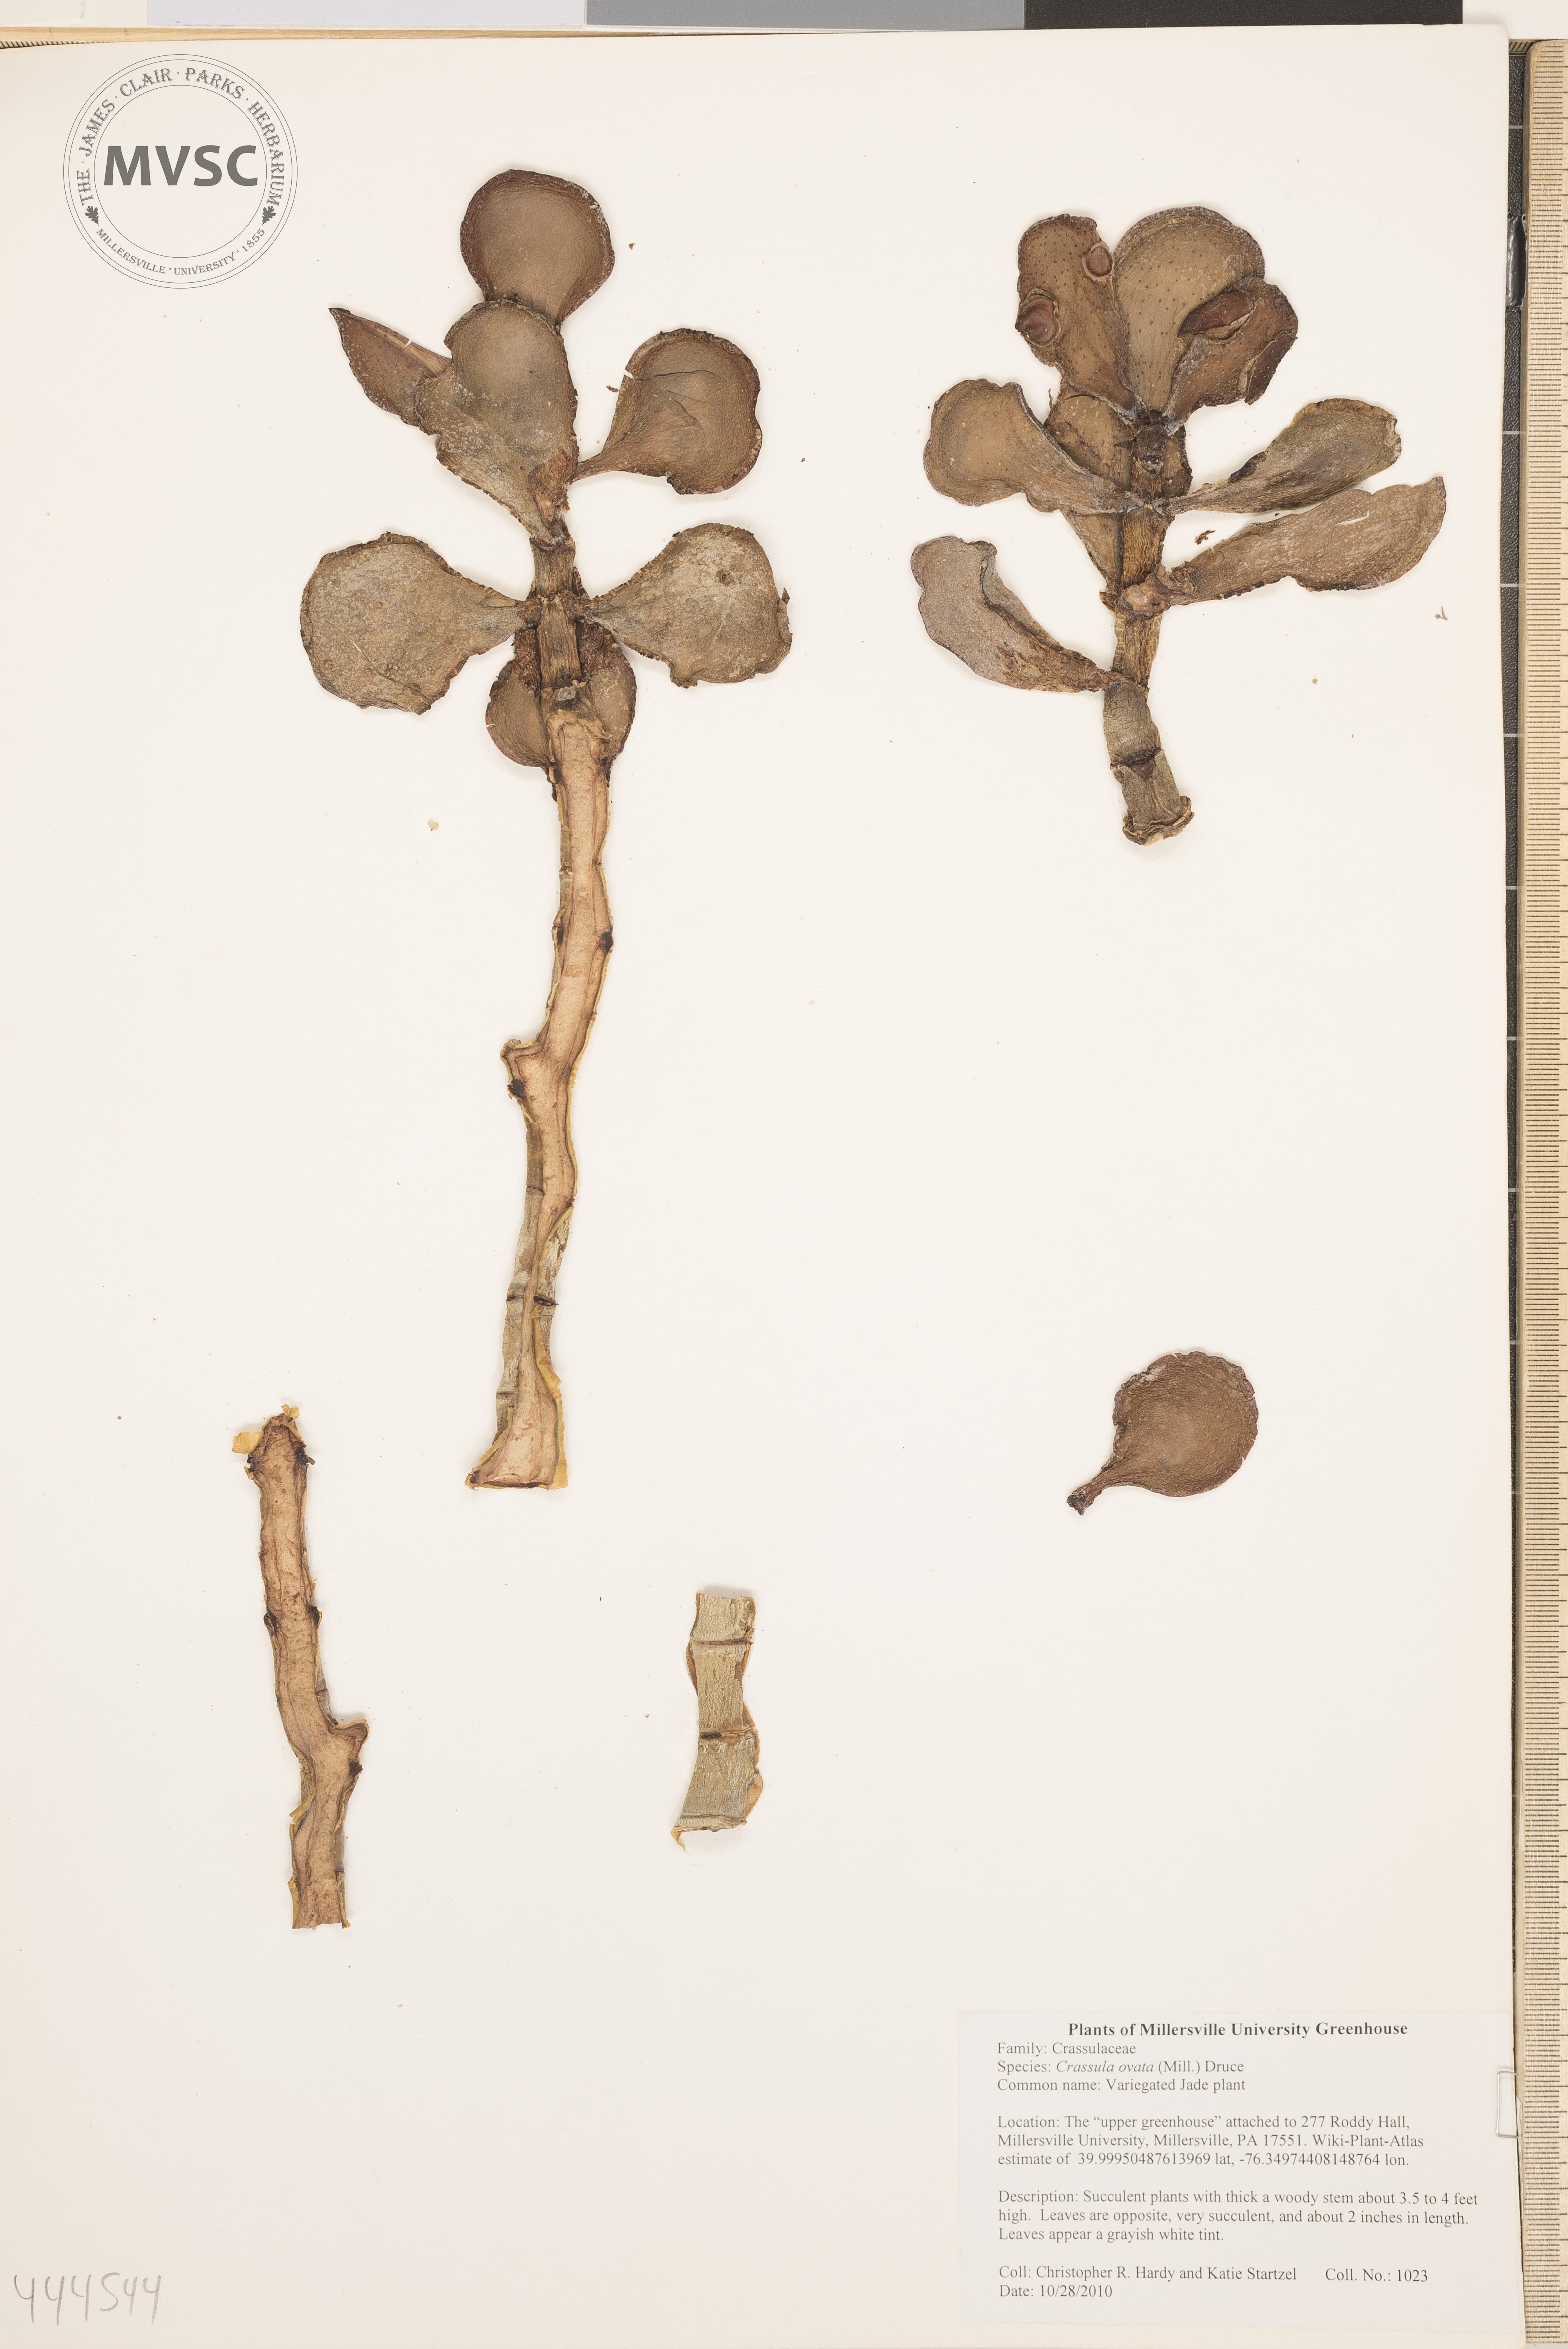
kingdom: Plantae
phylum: Tracheophyta
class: Magnoliopsida
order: Saxifragales
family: Crassulaceae
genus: Crassula
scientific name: Crassula ovata
